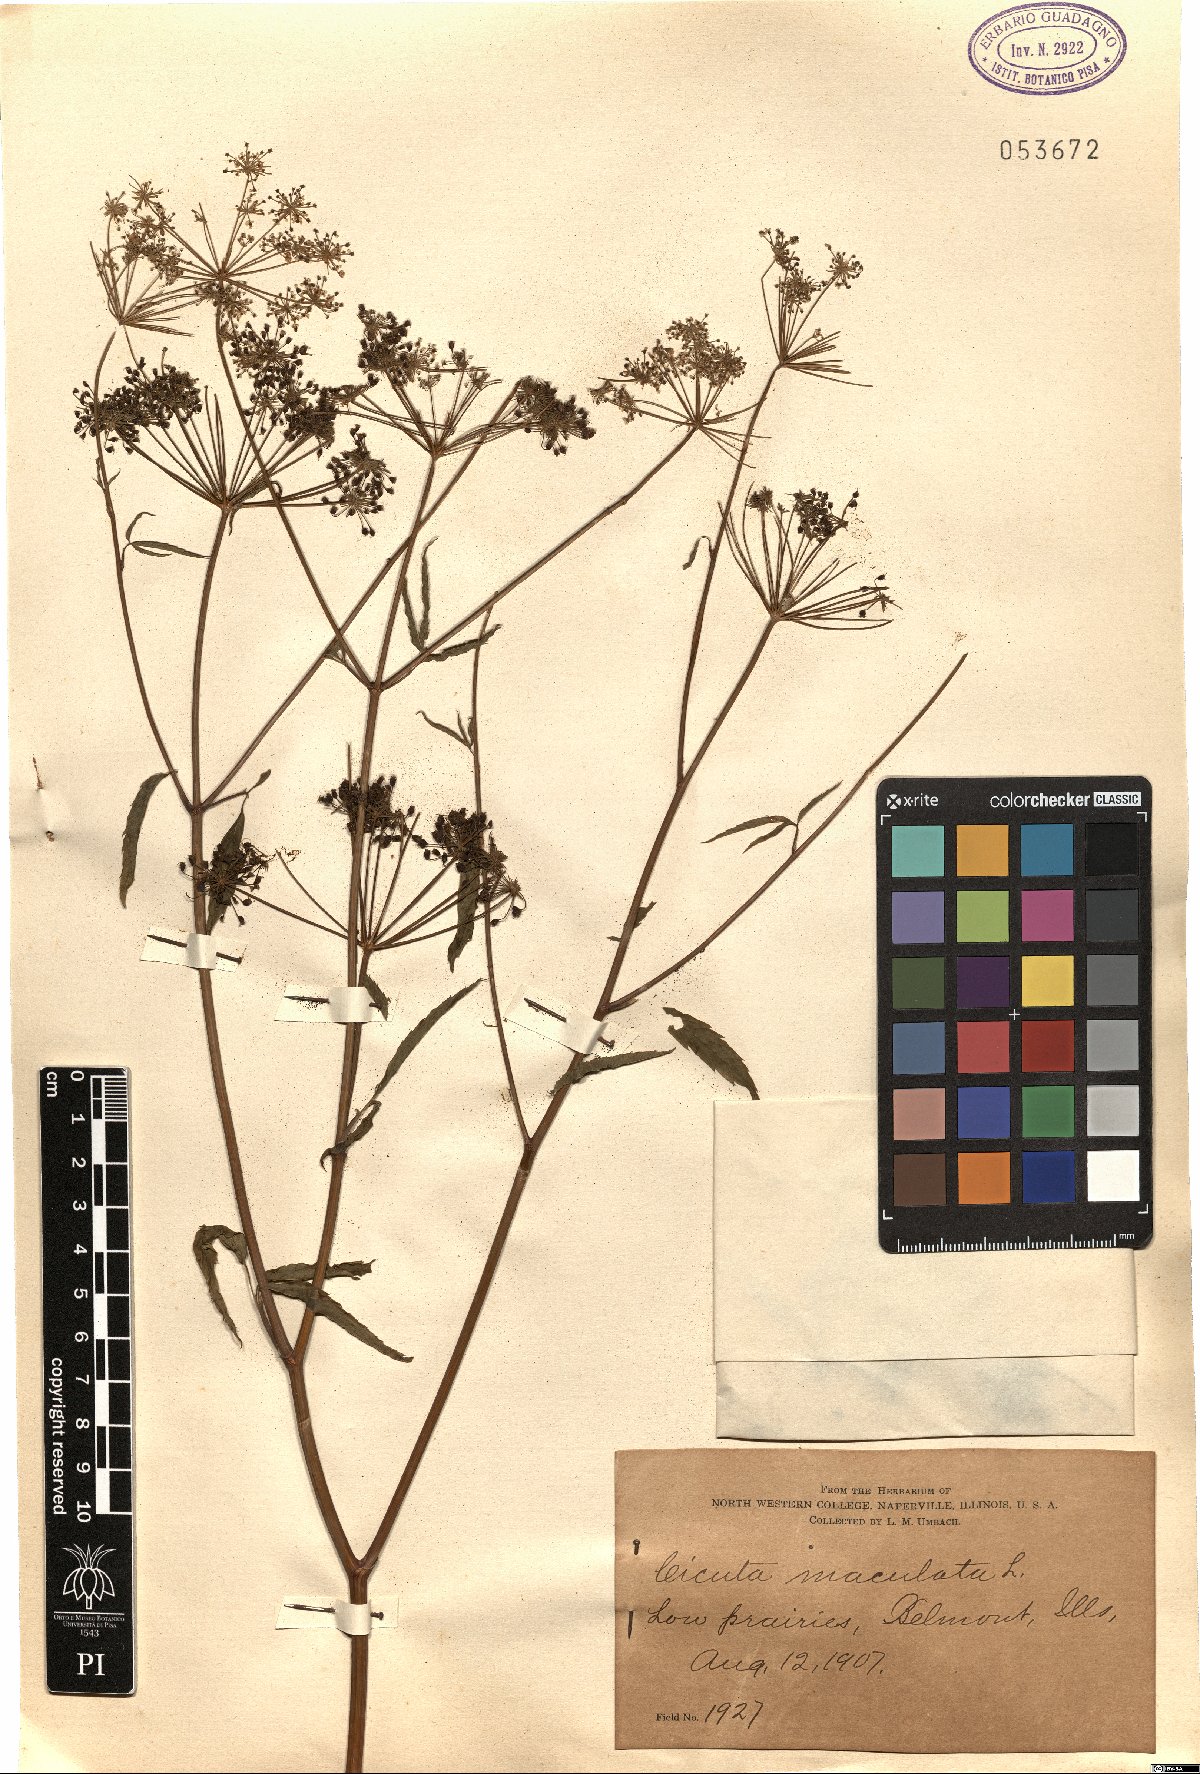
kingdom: Plantae
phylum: Tracheophyta
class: Magnoliopsida
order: Apiales
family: Apiaceae
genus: Cicuta
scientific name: Cicuta maculata
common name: Spotted cowbane
